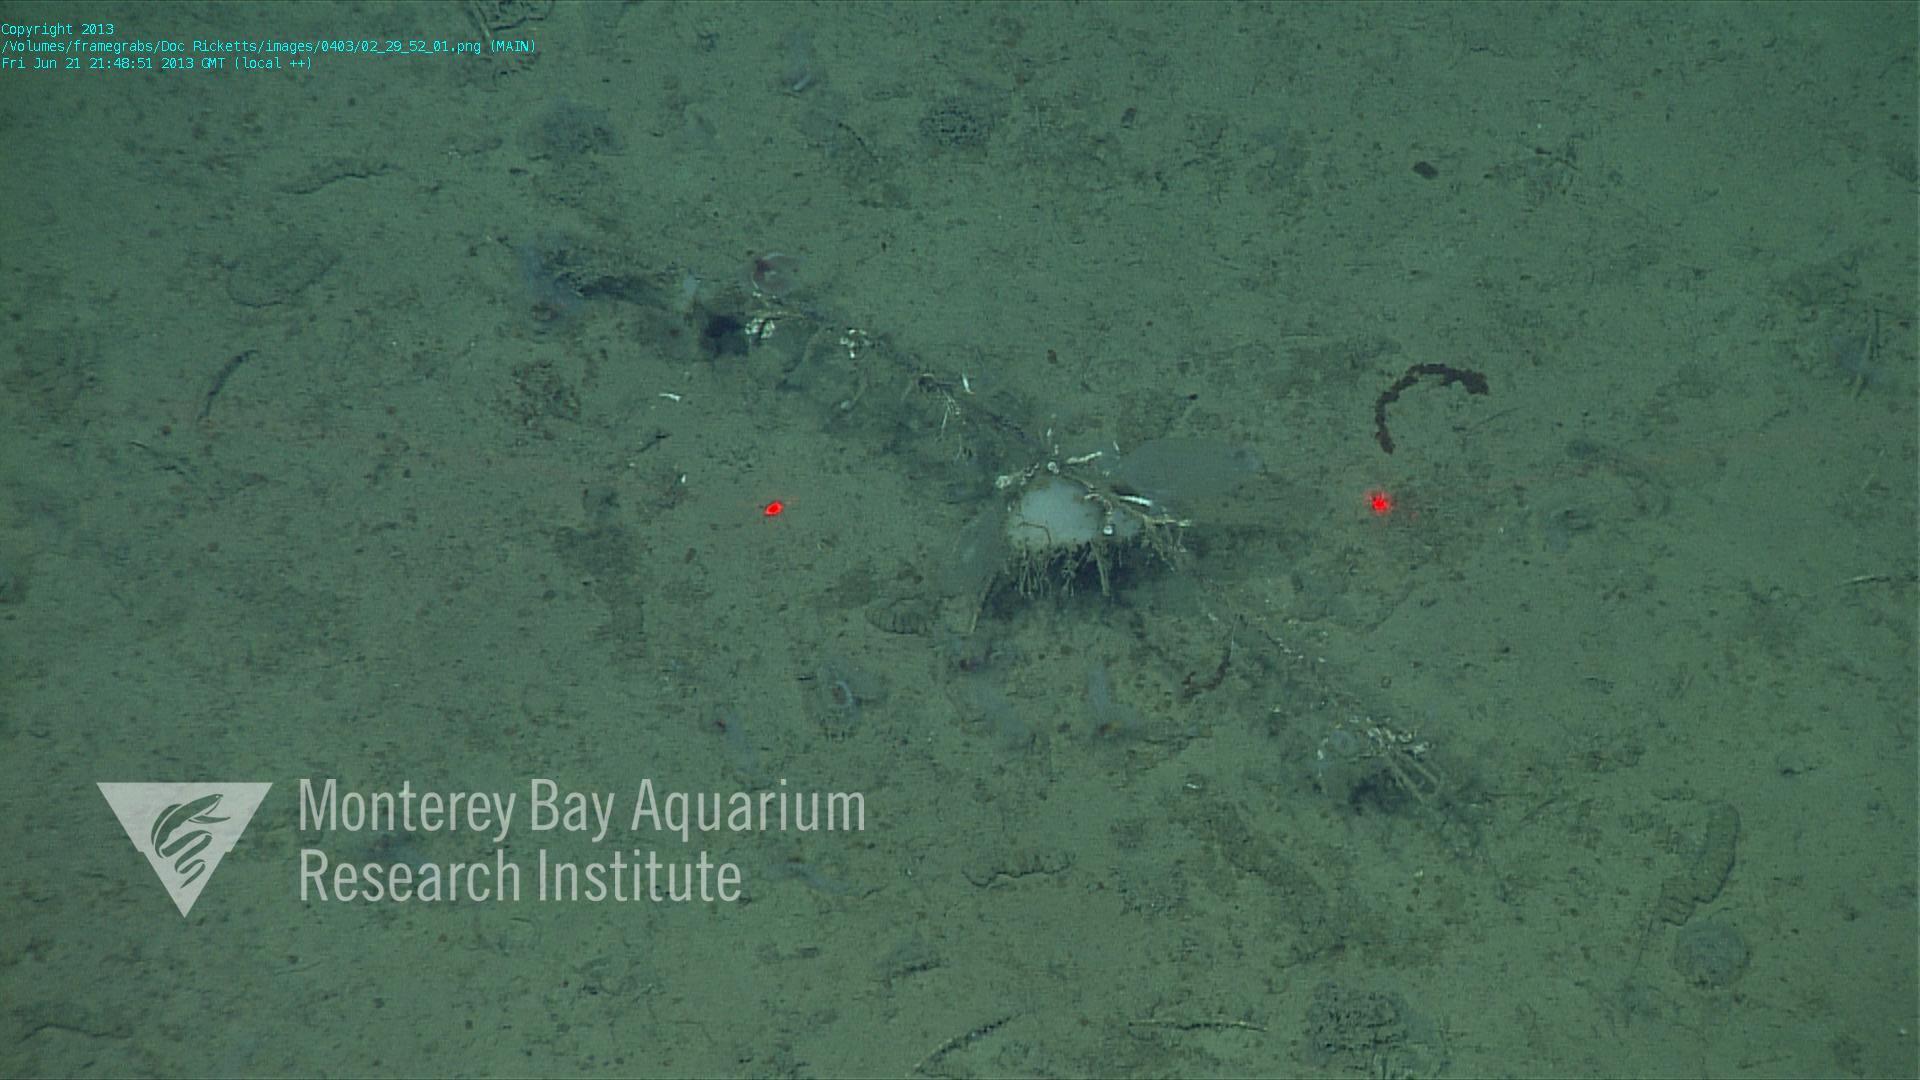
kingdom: Animalia
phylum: Porifera
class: Hexactinellida
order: Lyssacinosida
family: Rossellidae
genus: Bathydorus
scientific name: Bathydorus spinosus
